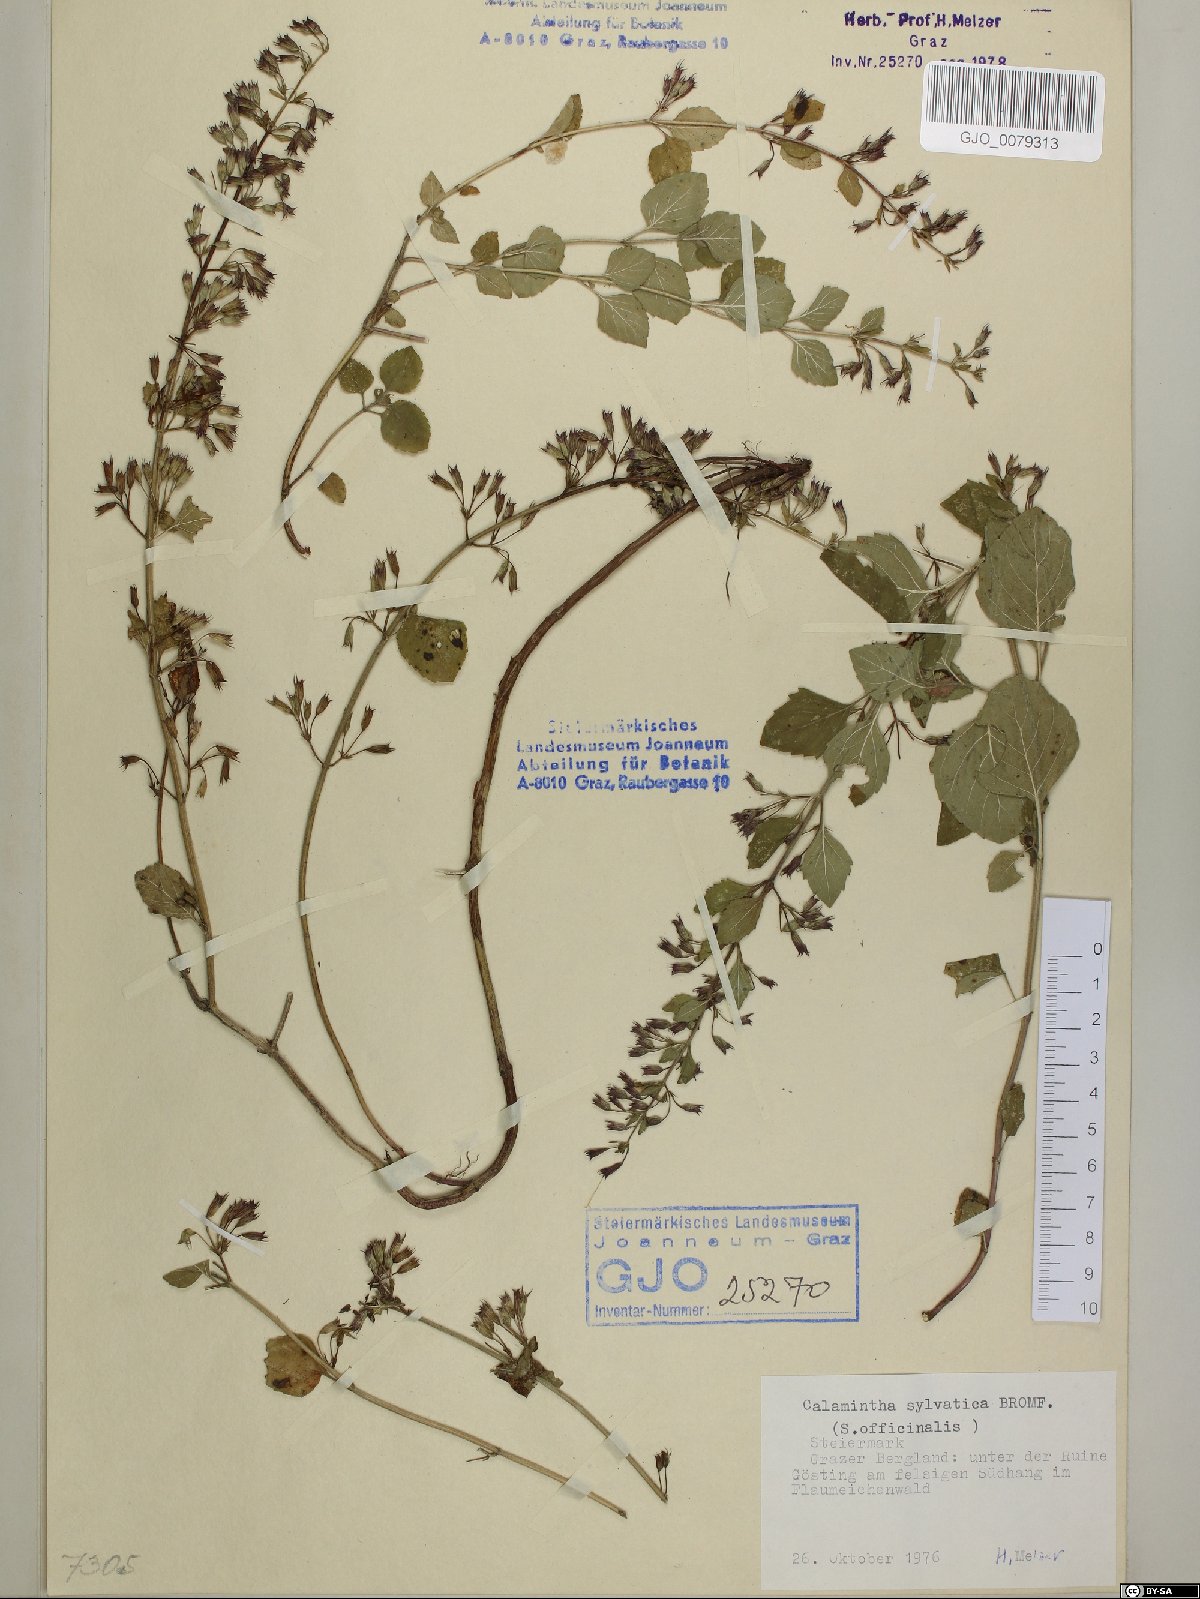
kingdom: Plantae
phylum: Tracheophyta
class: Magnoliopsida
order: Lamiales
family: Lamiaceae
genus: Clinopodium
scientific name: Clinopodium menthifolium
